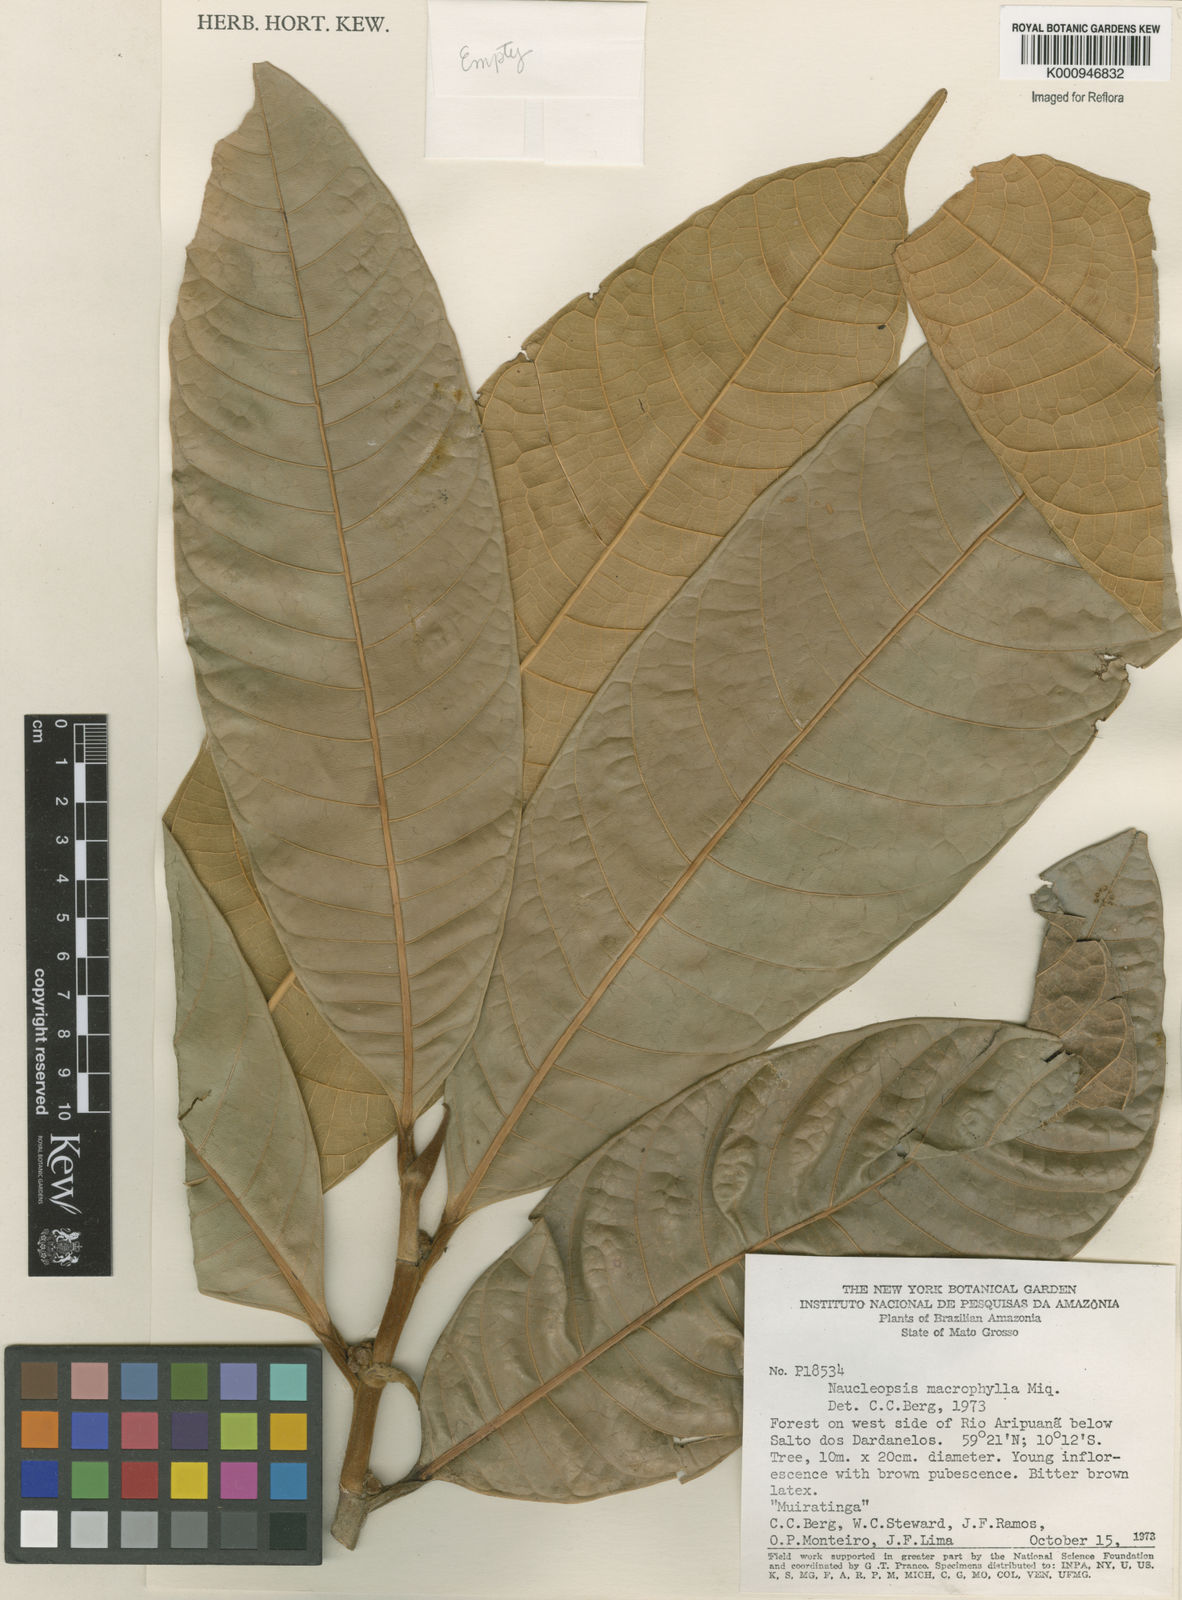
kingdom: Plantae
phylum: Tracheophyta
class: Magnoliopsida
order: Rosales
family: Moraceae
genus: Naucleopsis
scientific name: Naucleopsis macrophylla
